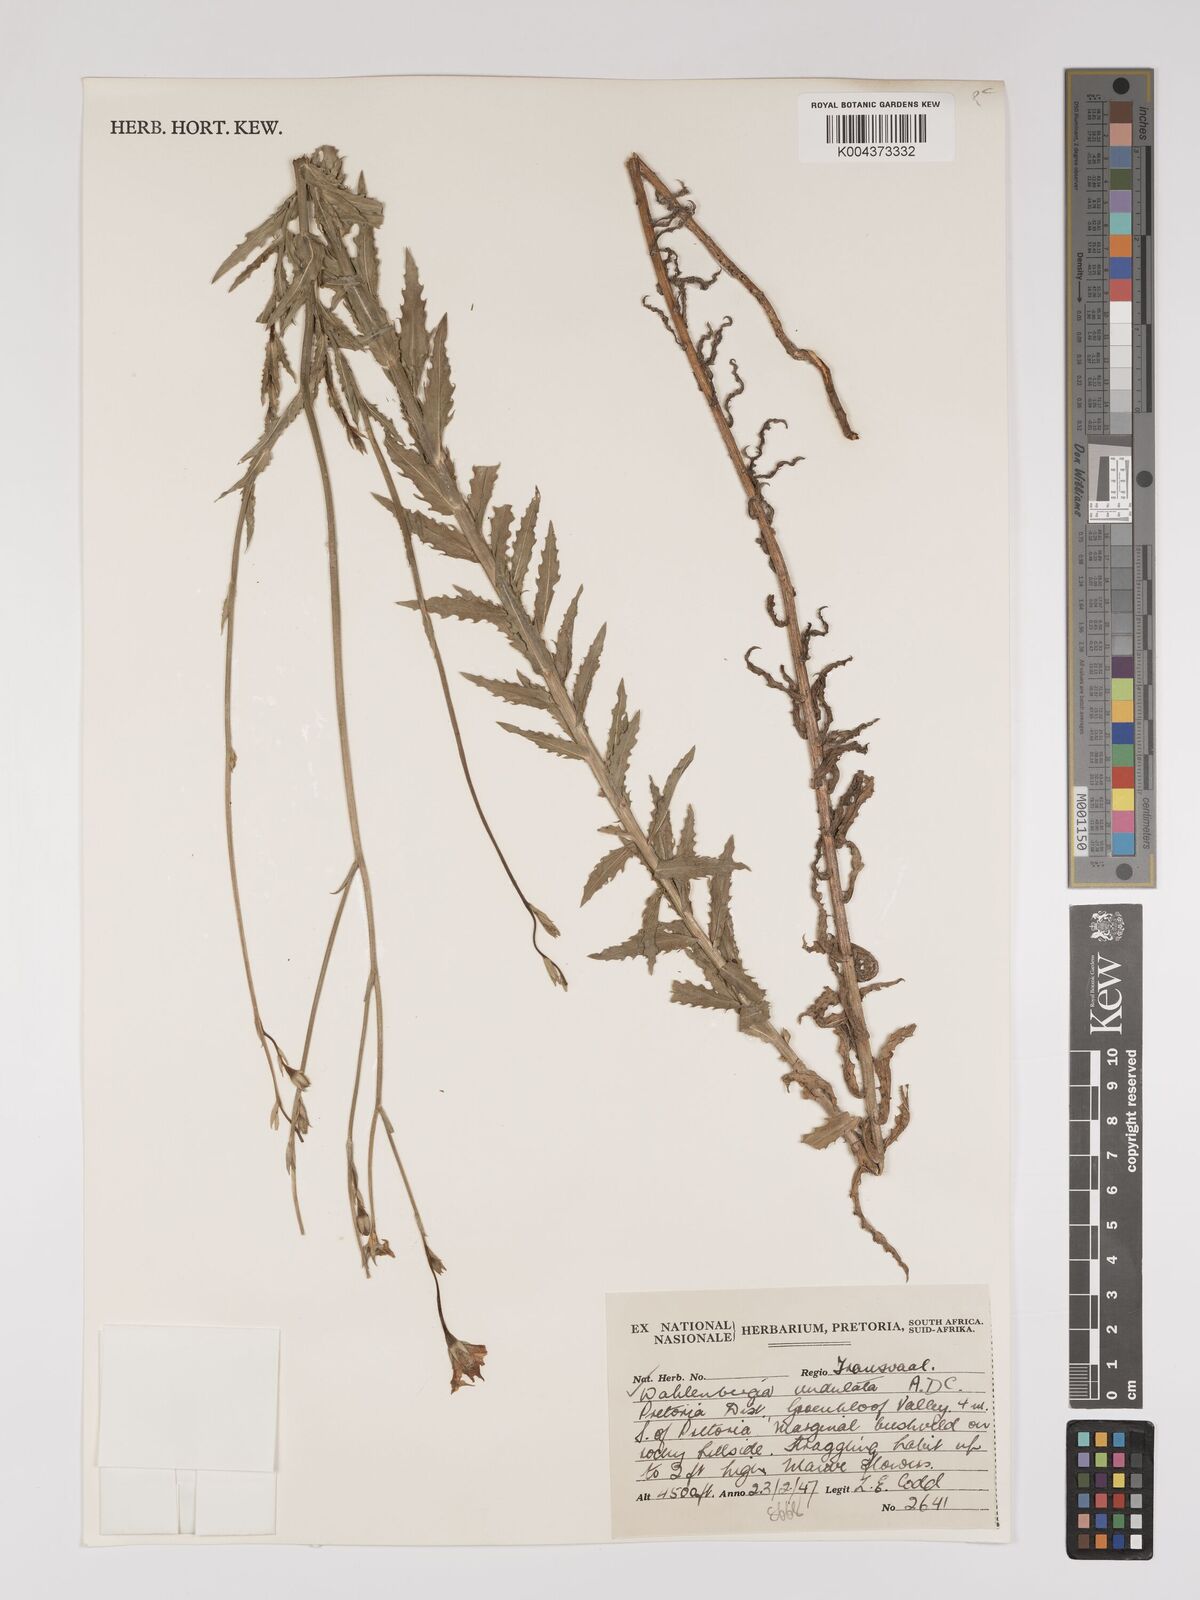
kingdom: Plantae
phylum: Tracheophyta
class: Magnoliopsida
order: Asterales
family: Campanulaceae
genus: Wahlenbergia
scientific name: Wahlenbergia undulata
